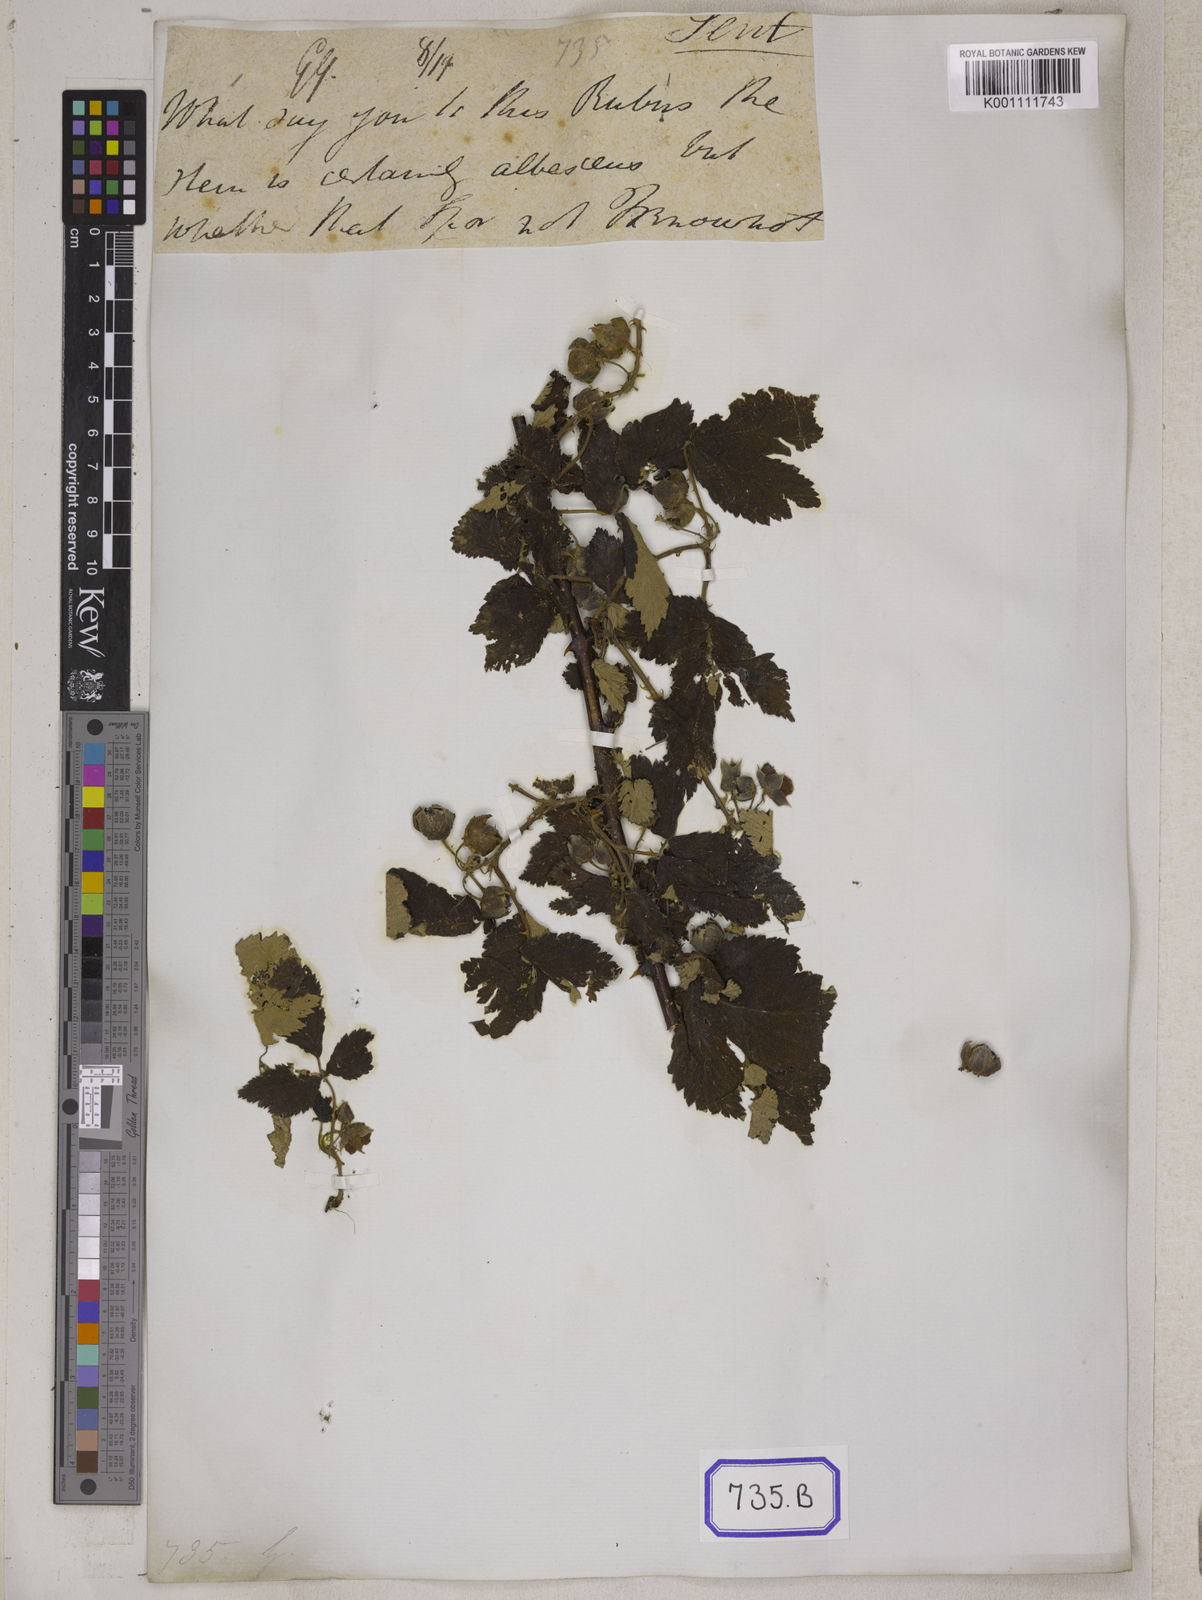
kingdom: Plantae
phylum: Tracheophyta
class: Magnoliopsida
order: Rosales
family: Rosaceae
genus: Rubus
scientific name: Rubus biflorus
